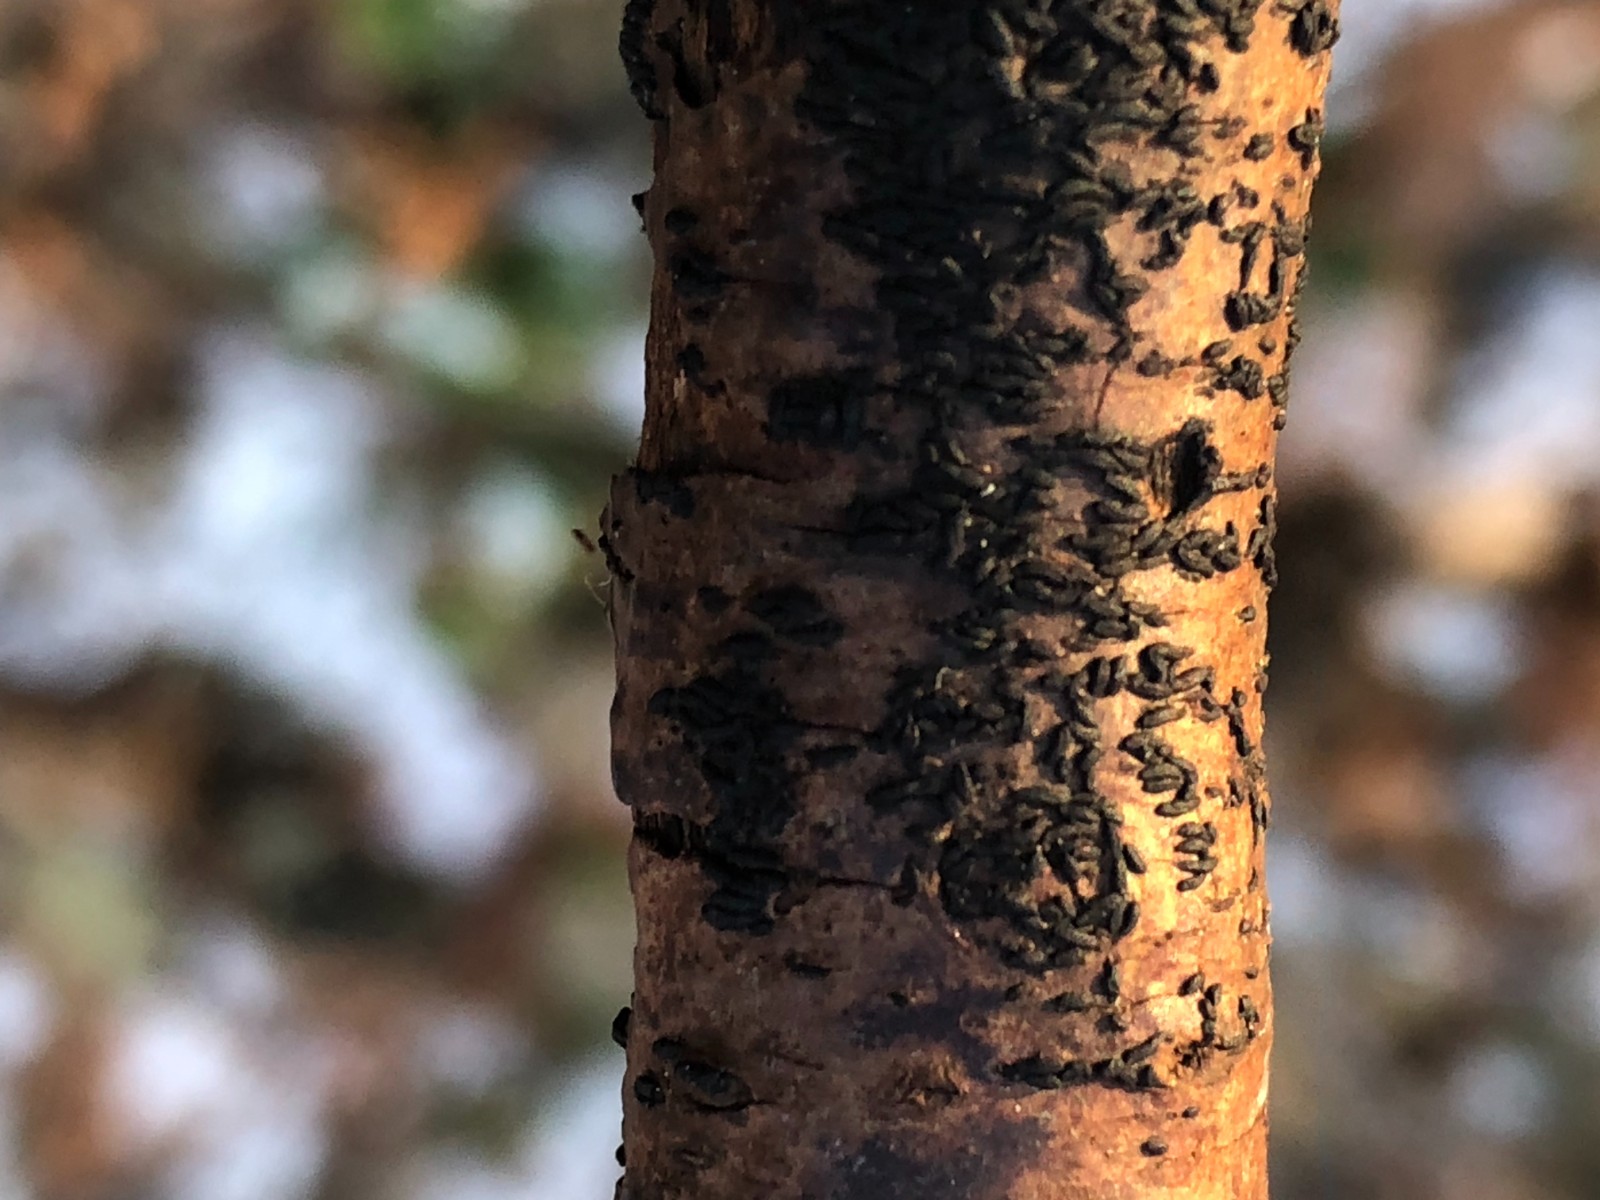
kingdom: Fungi
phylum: Ascomycota
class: Dothideomycetes
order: Hysteriales
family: Hysteriaceae
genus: Hysterium
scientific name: Hysterium acuminatum
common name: almindelig kulmund
